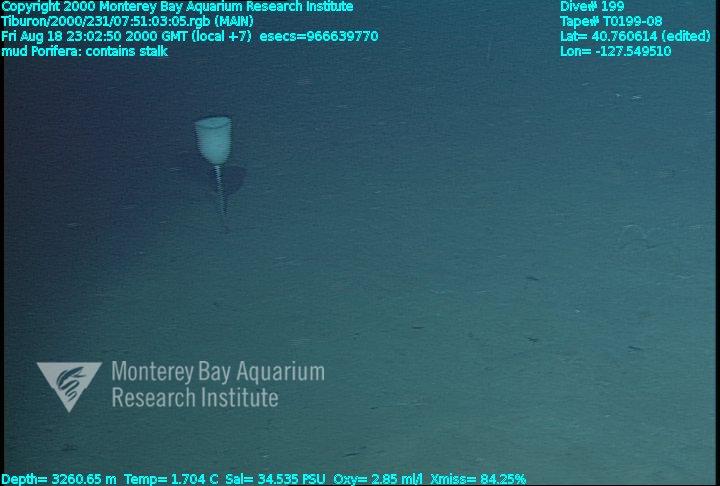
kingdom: Animalia
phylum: Porifera
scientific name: Porifera
